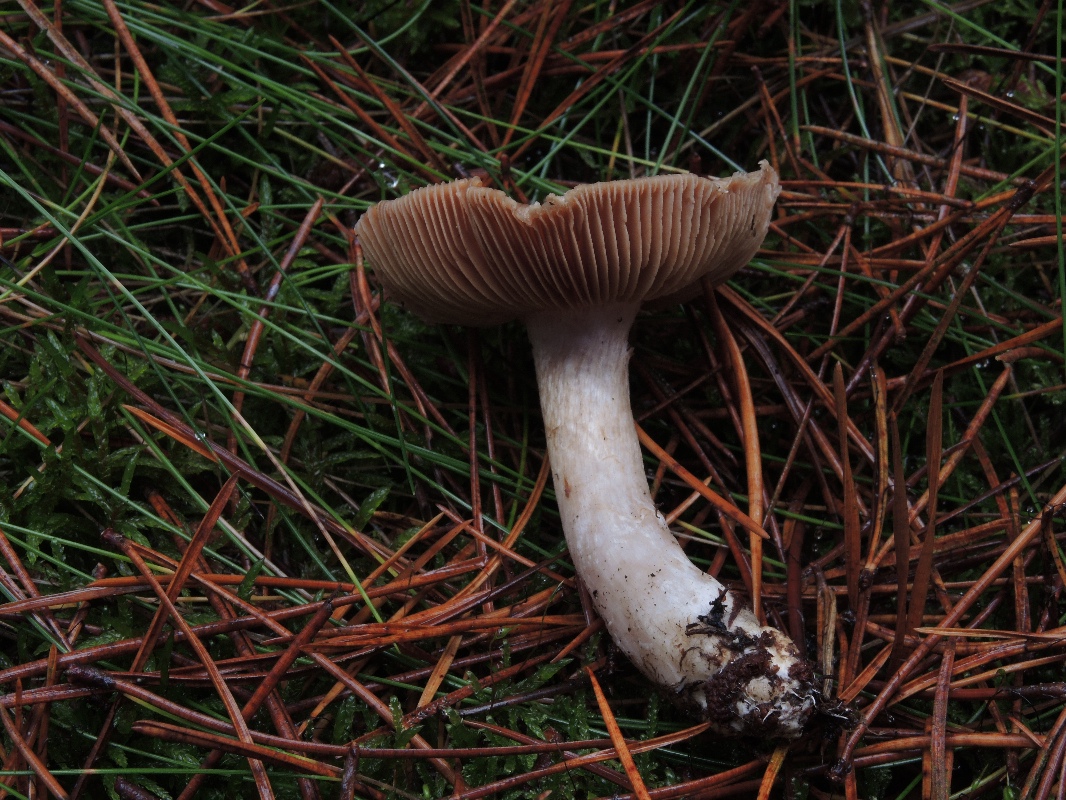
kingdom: Fungi
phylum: Basidiomycota
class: Agaricomycetes
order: Agaricales
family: Cortinariaceae
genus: Cortinarius
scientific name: Cortinarius quarciticus
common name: kvarts-slørhat
